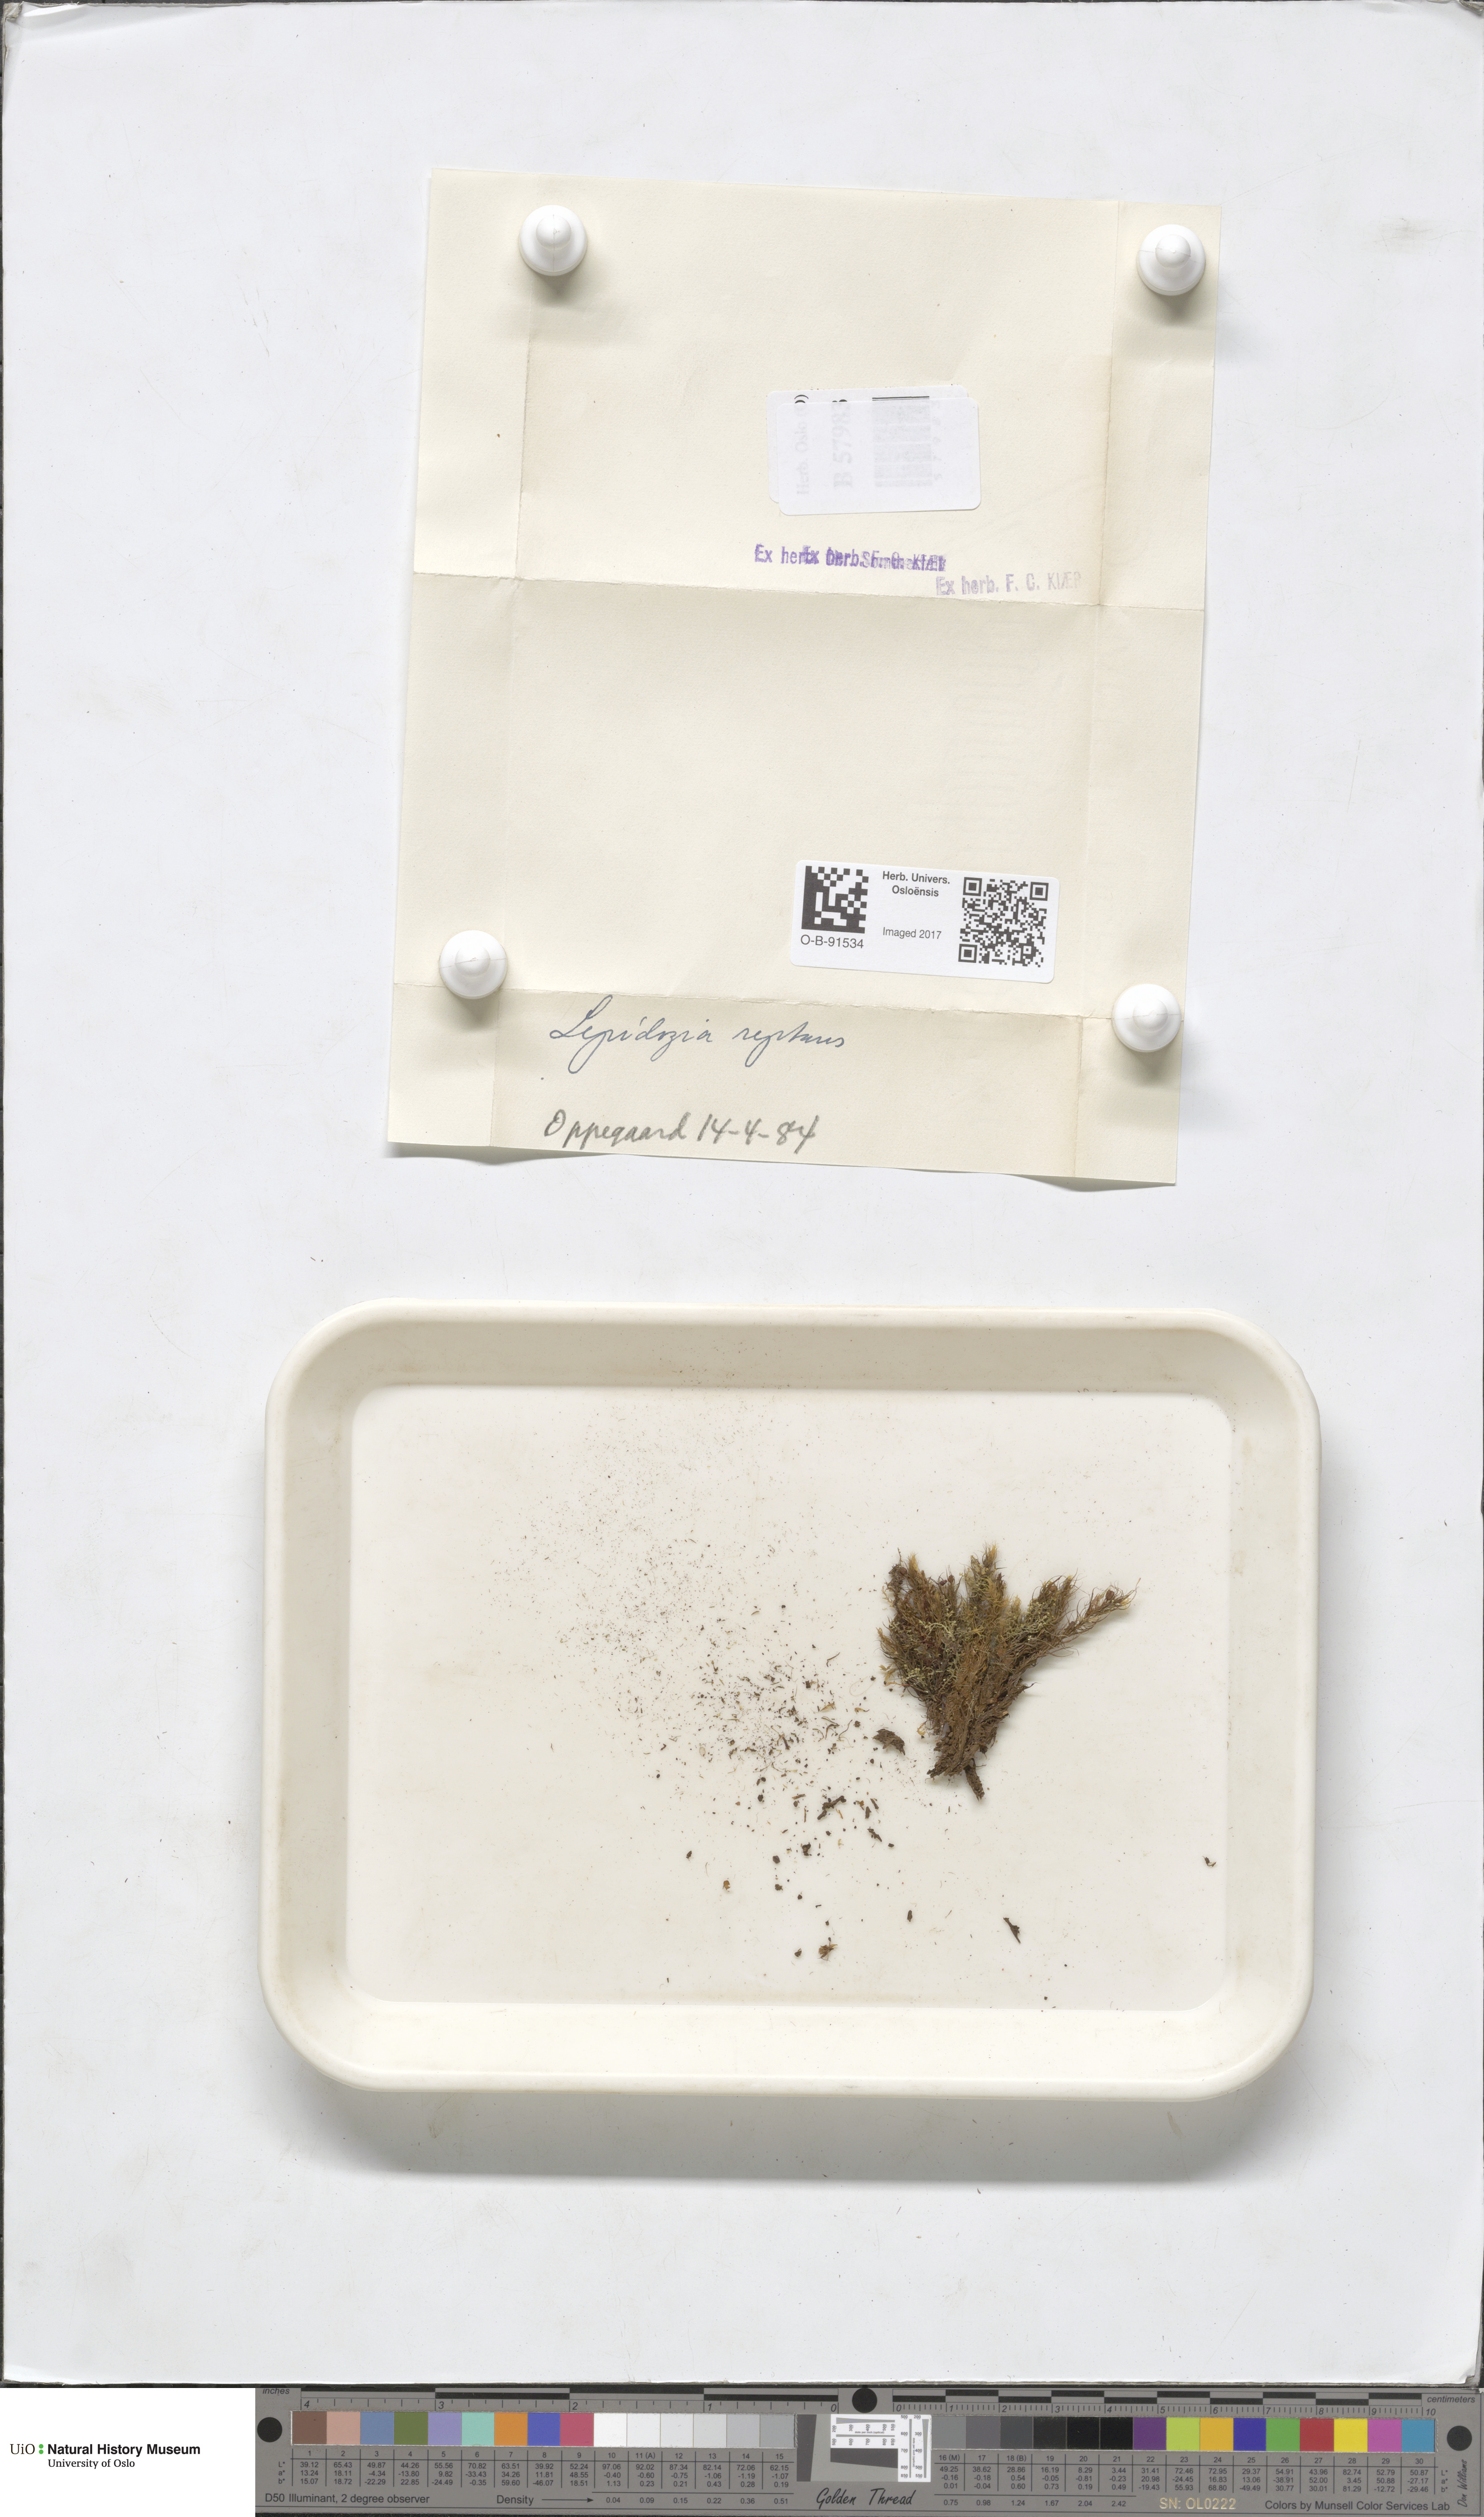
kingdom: Plantae
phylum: Marchantiophyta
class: Jungermanniopsida
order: Jungermanniales
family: Lepidoziaceae
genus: Lepidozia
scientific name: Lepidozia reptans
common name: Creeping fingerwort
